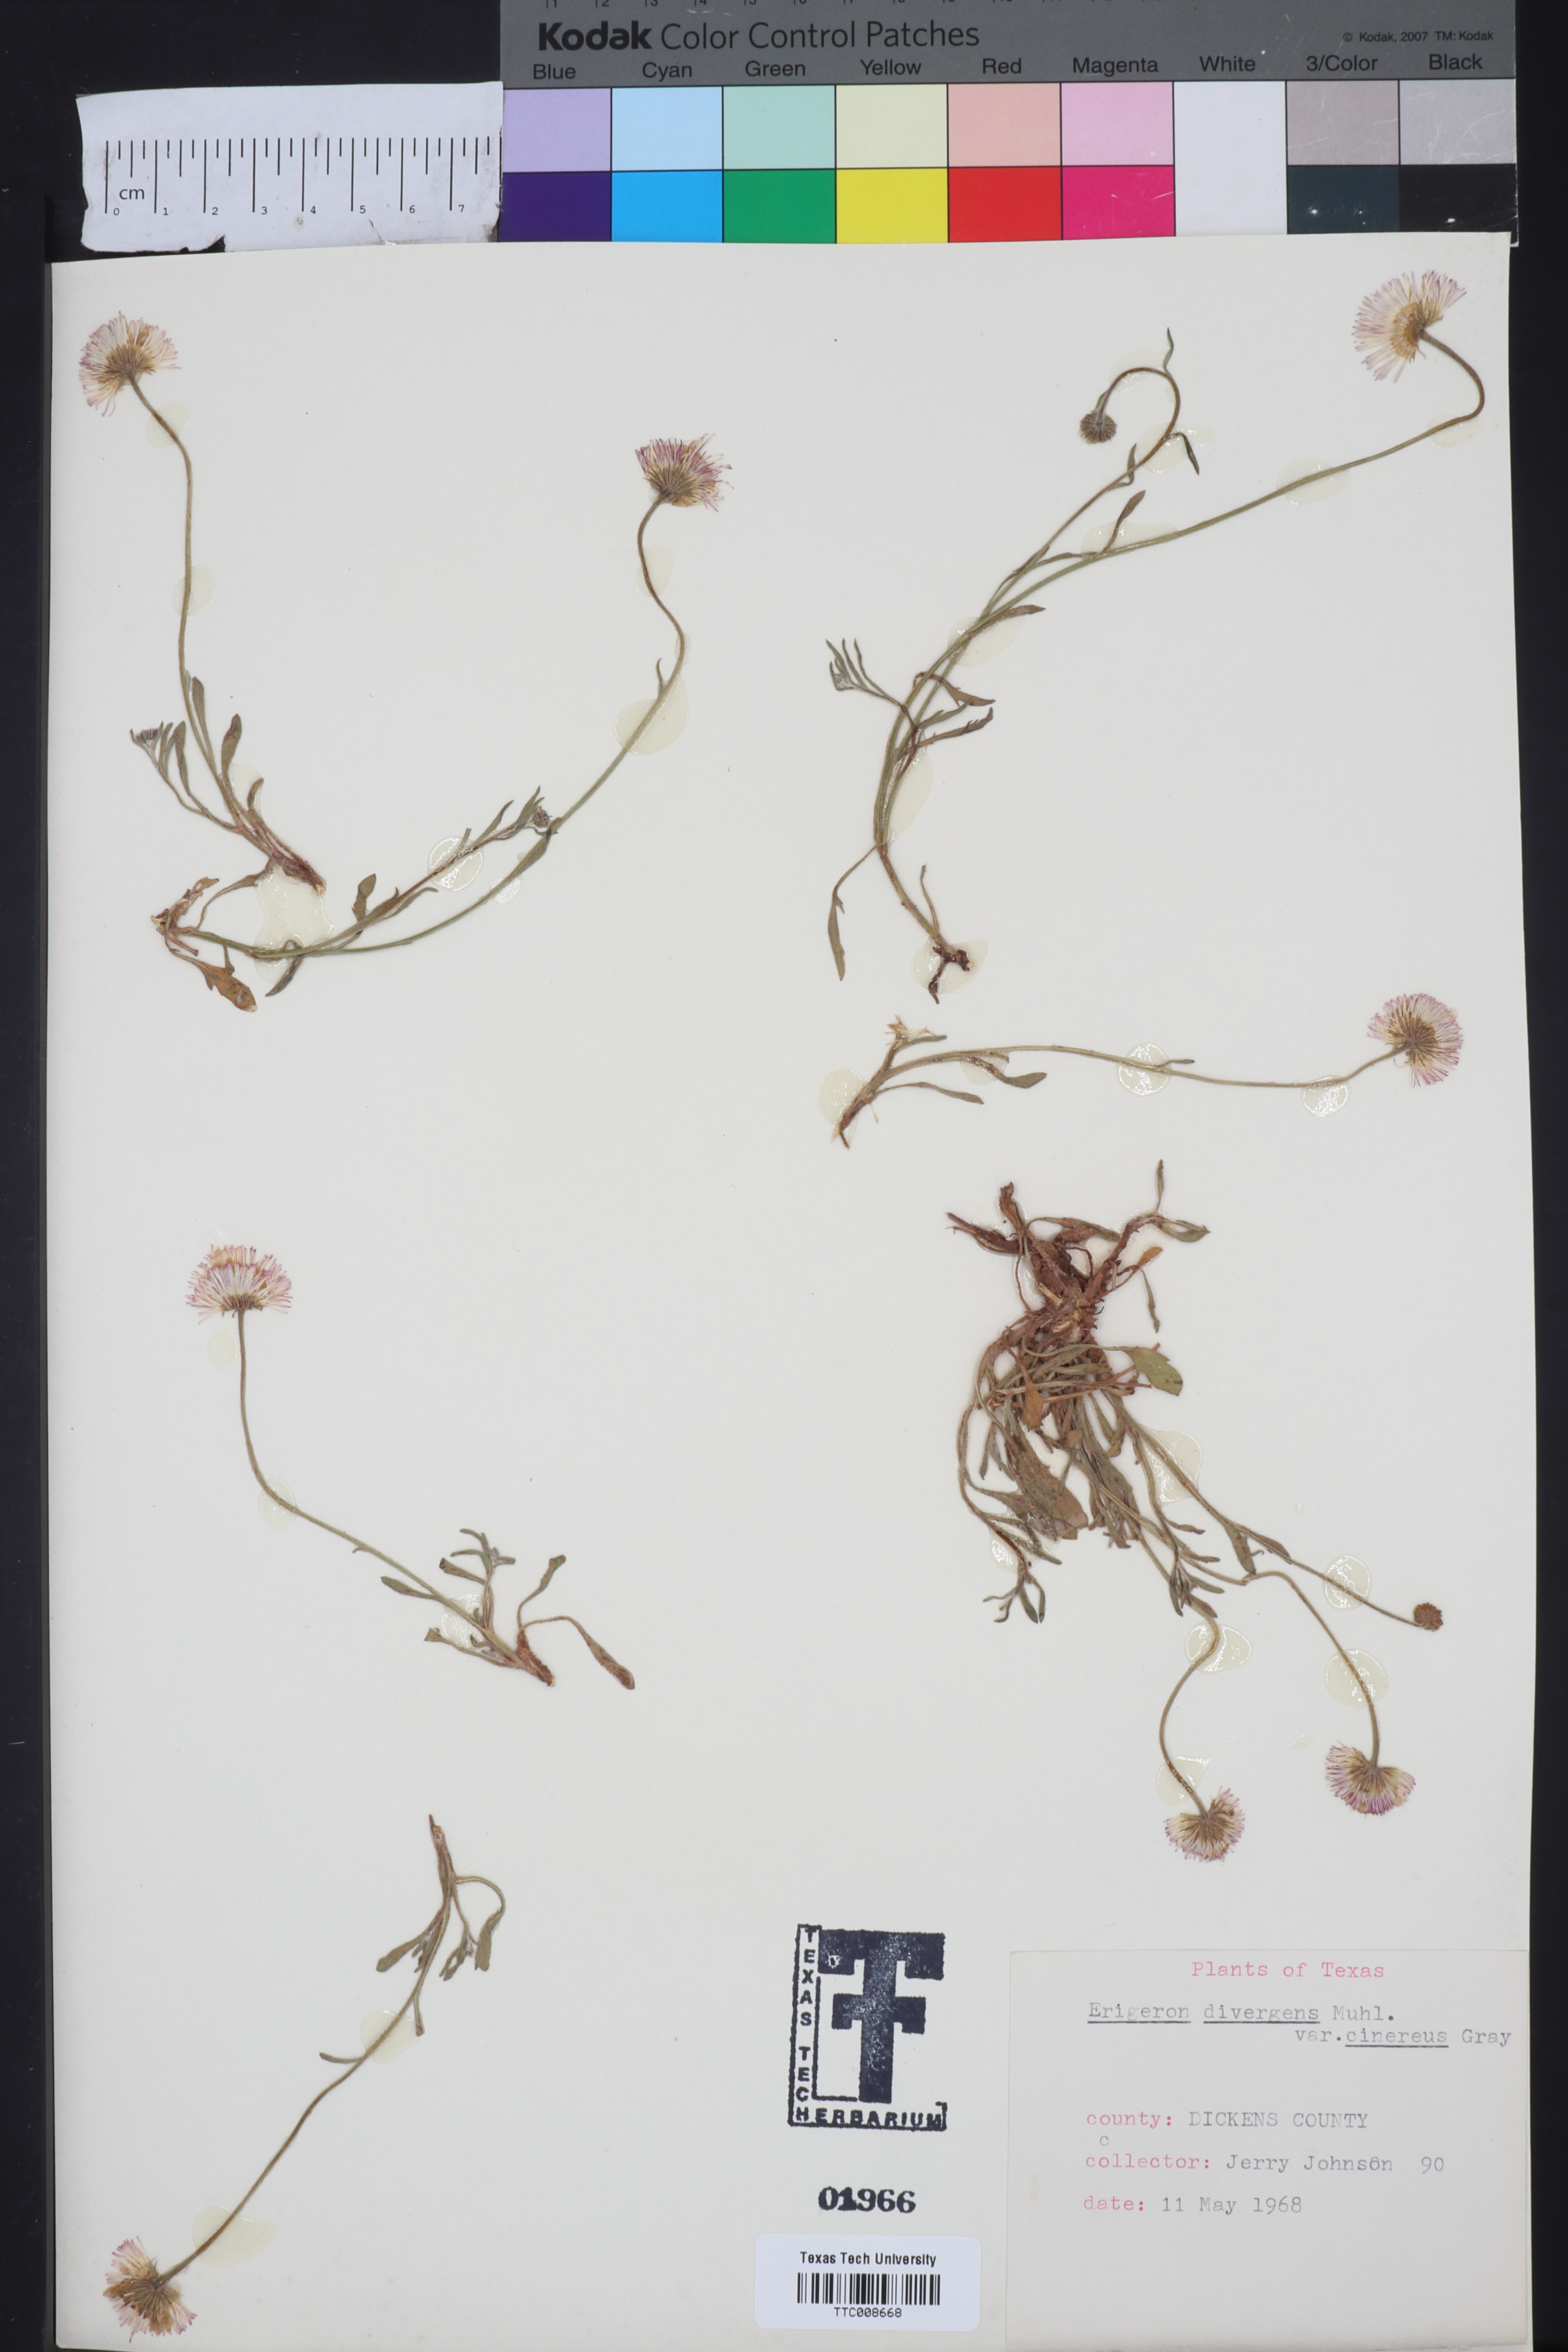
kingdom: Plantae
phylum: Tracheophyta
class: Magnoliopsida
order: Asterales
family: Asteraceae
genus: Erigeron
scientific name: Erigeron tracyi
